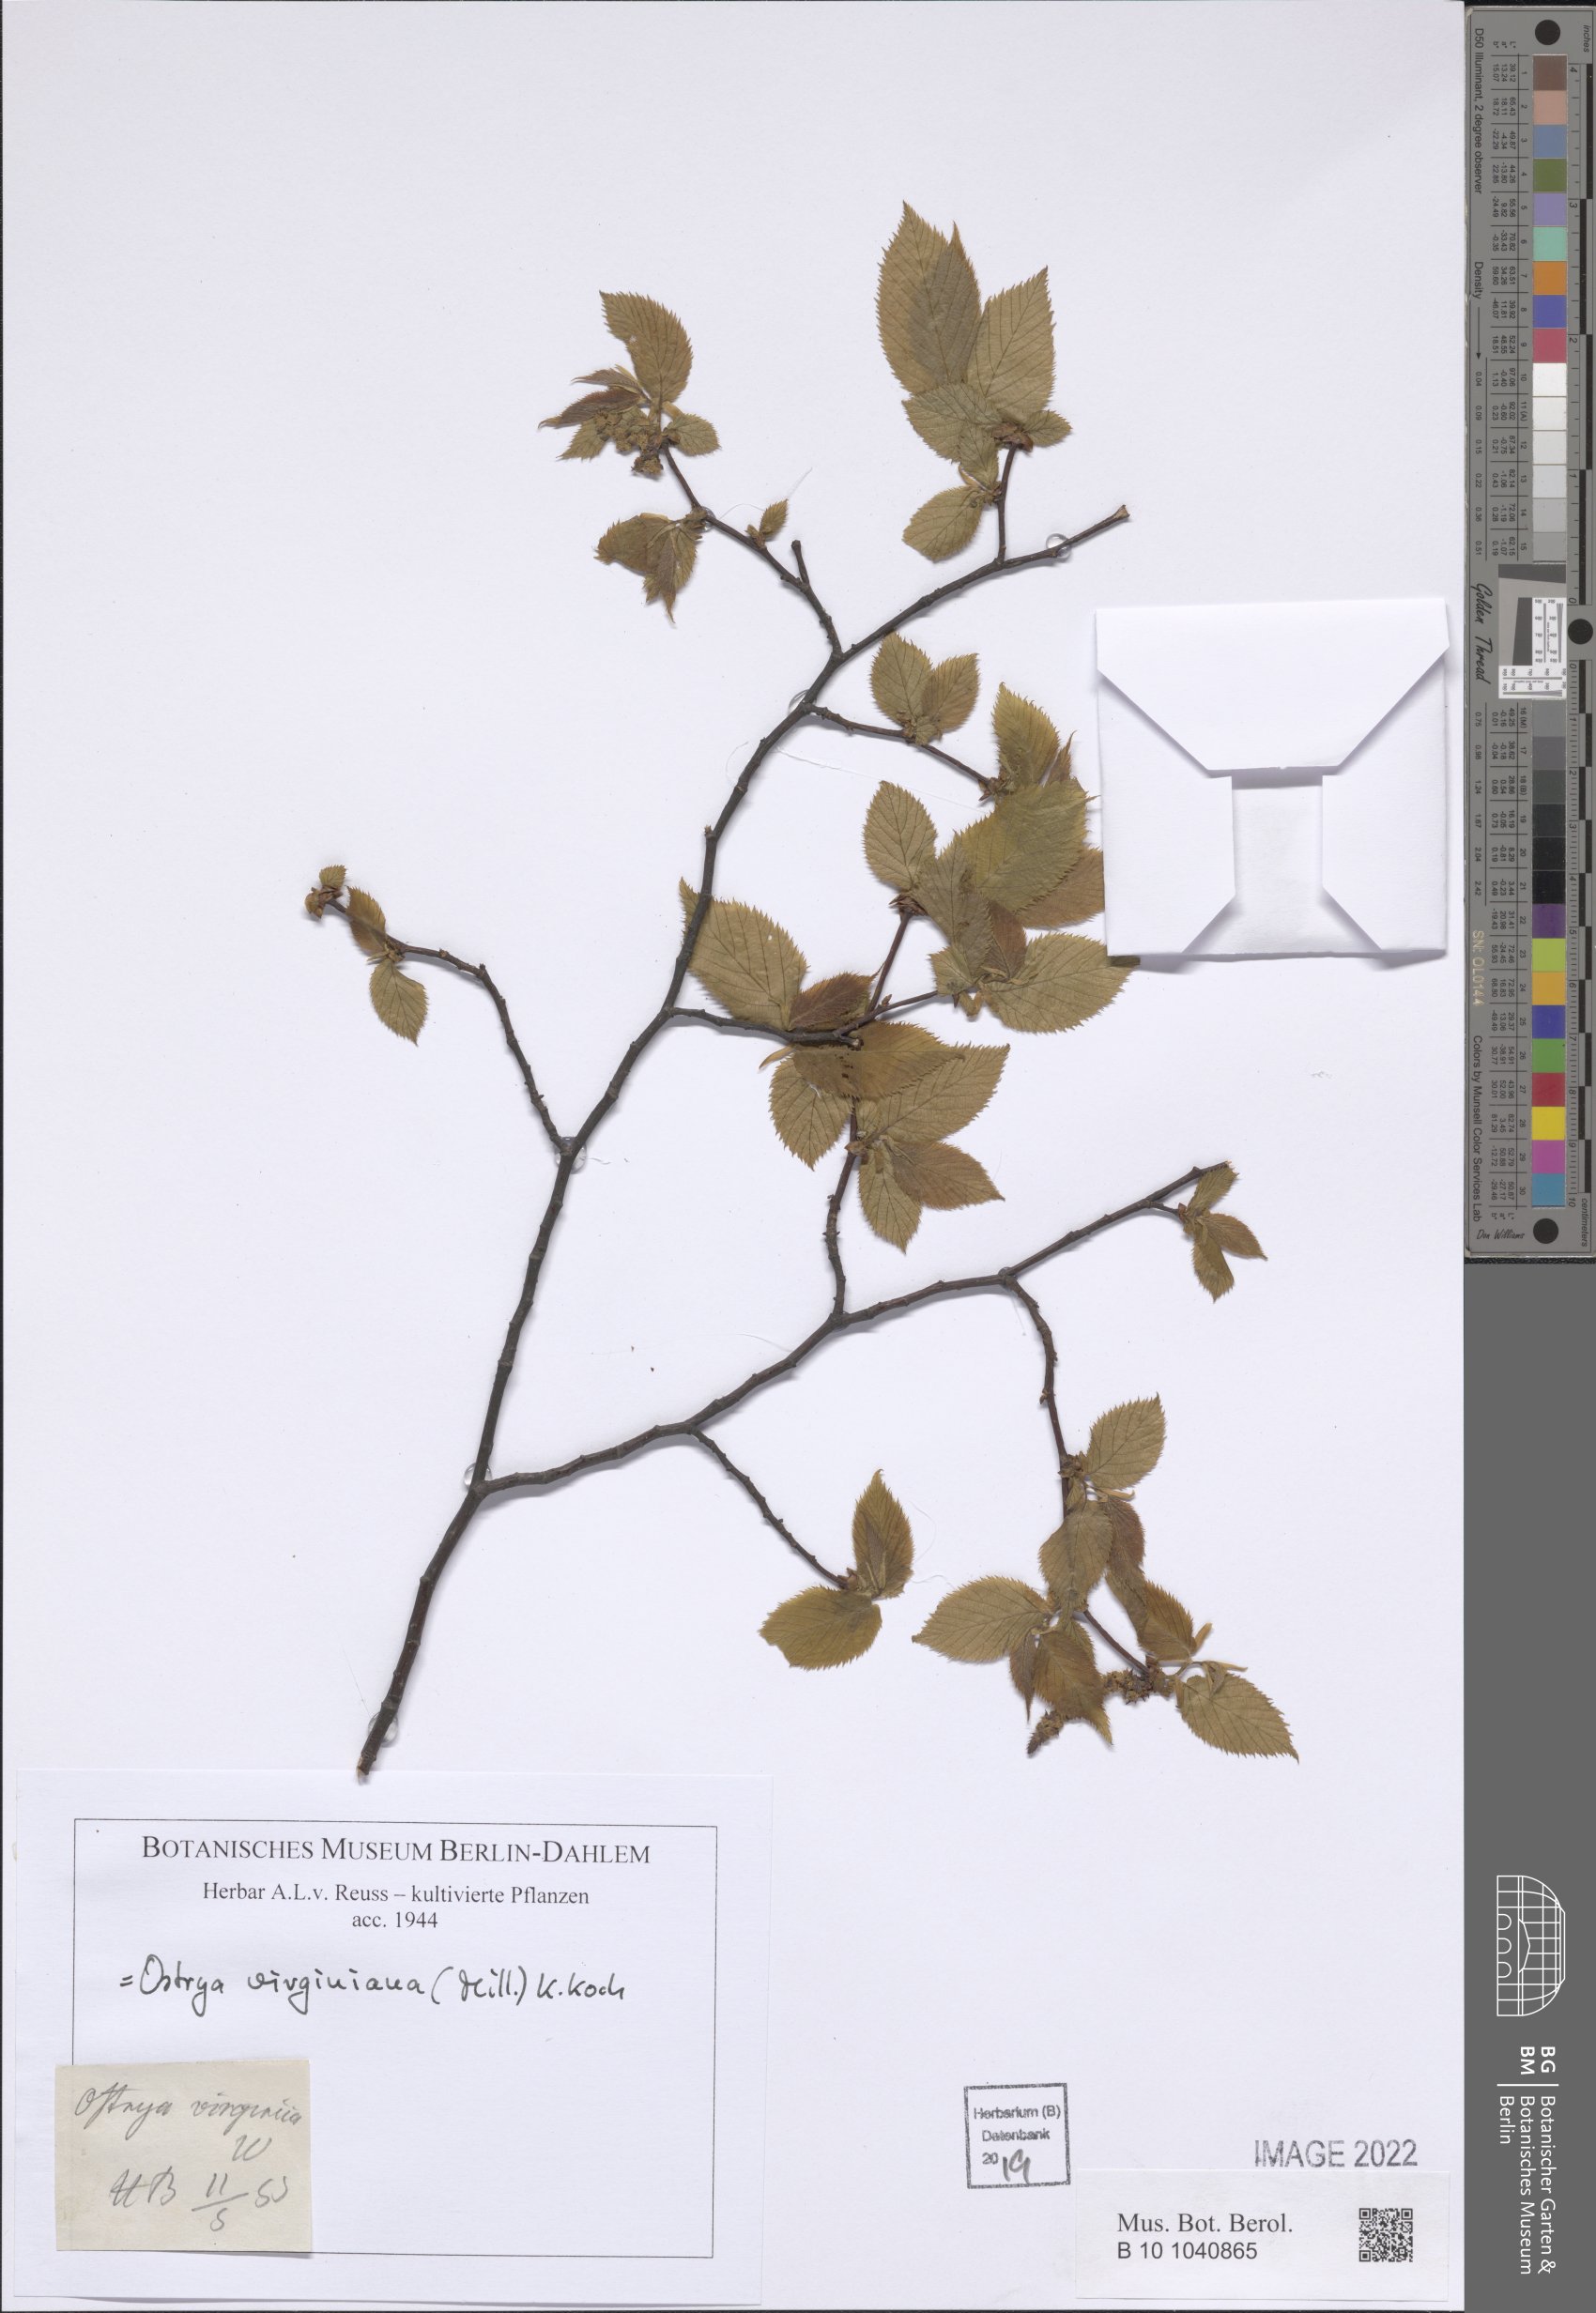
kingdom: Plantae
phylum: Tracheophyta
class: Magnoliopsida
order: Fagales
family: Betulaceae
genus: Ostrya
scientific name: Ostrya virginiana
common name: Ironwood
